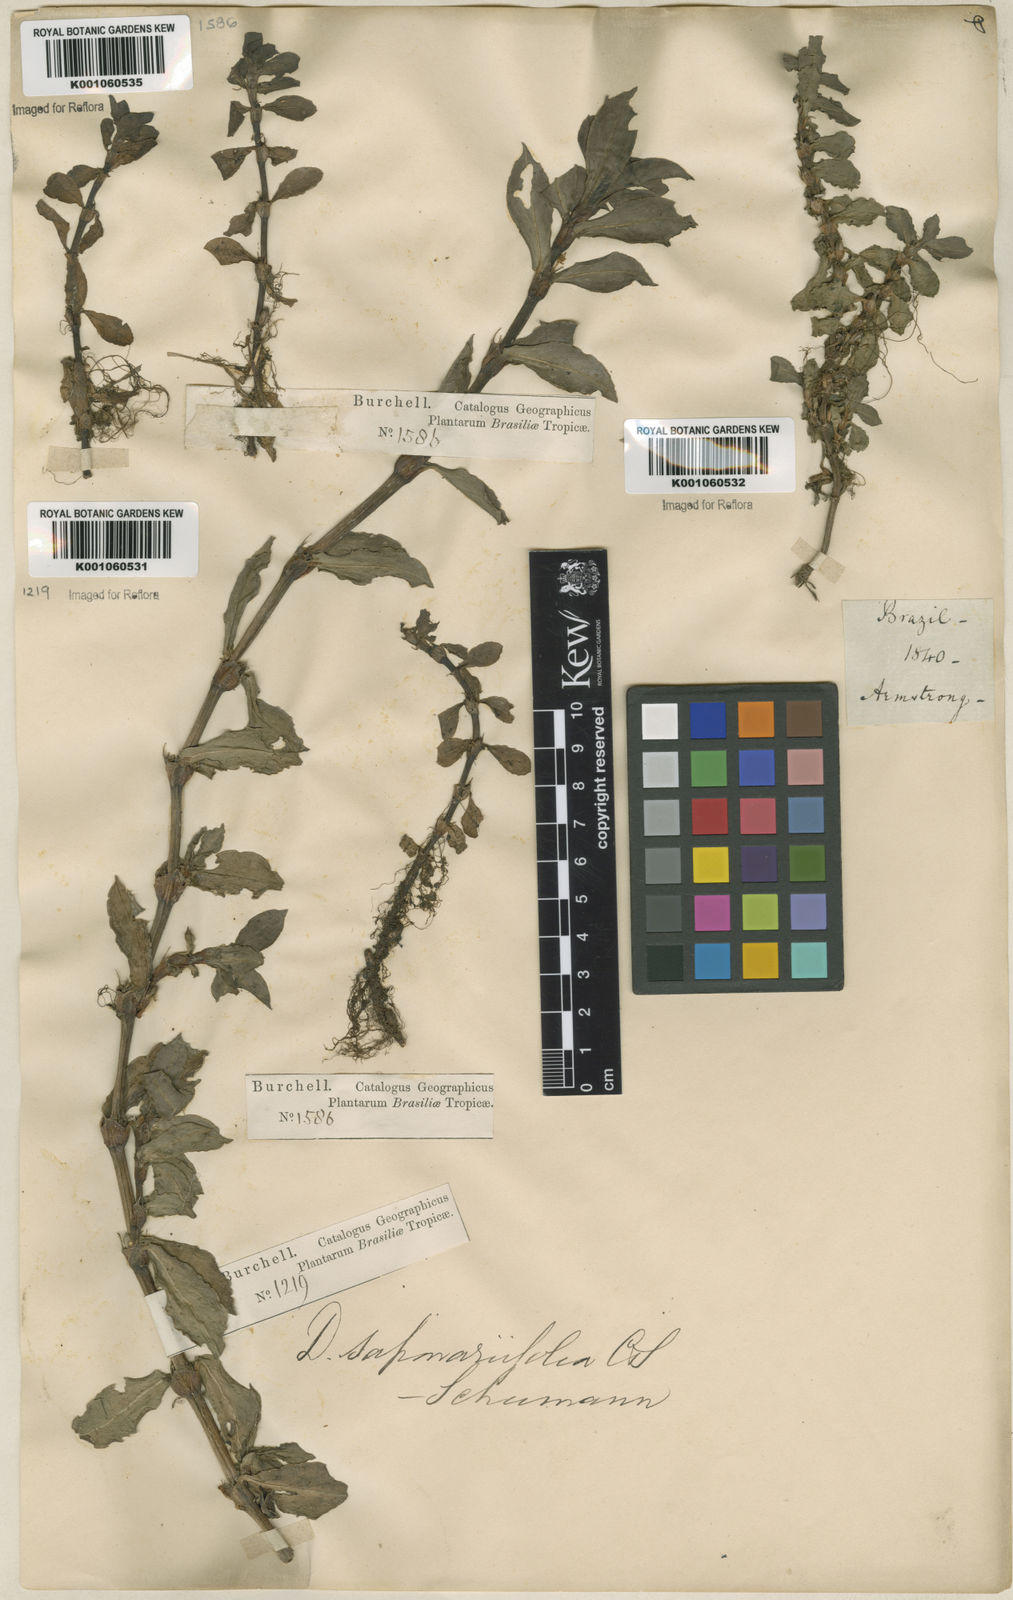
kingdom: Plantae
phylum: Tracheophyta
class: Magnoliopsida
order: Gentianales
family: Rubiaceae
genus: Diodia
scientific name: Diodia saponariifolia
